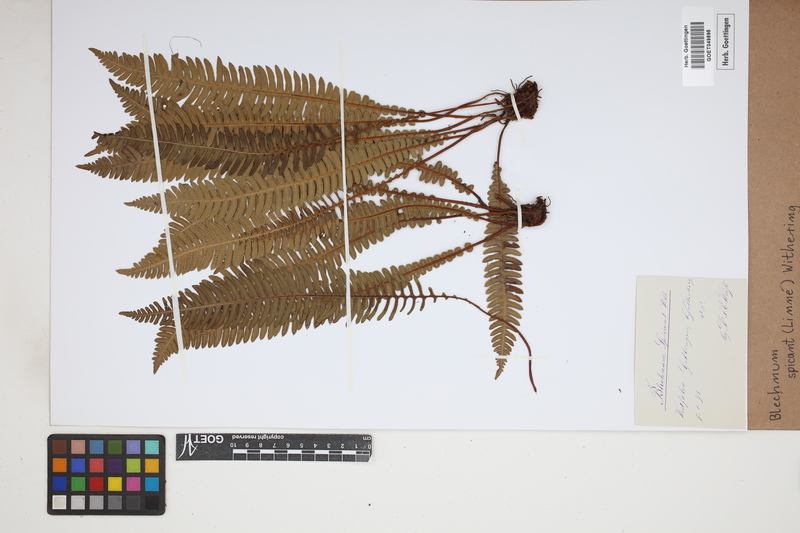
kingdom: Plantae
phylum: Tracheophyta
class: Polypodiopsida
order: Polypodiales
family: Blechnaceae
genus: Struthiopteris
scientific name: Struthiopteris spicant
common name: Deer fern
